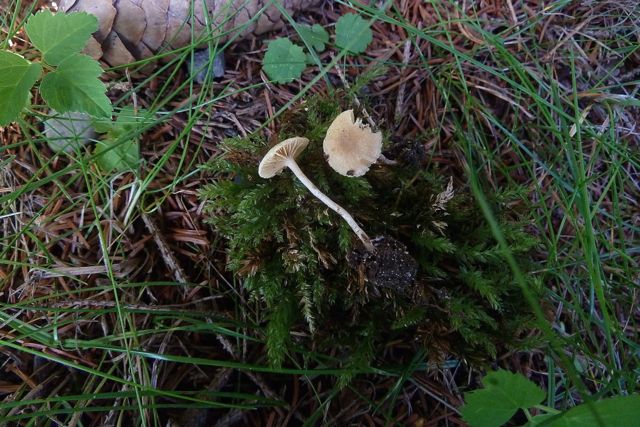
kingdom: Fungi
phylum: Basidiomycota
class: Agaricomycetes
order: Agaricales
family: Tubariaceae
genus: Tubaria
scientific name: Tubaria dispersa
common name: tjørne-fnughat
